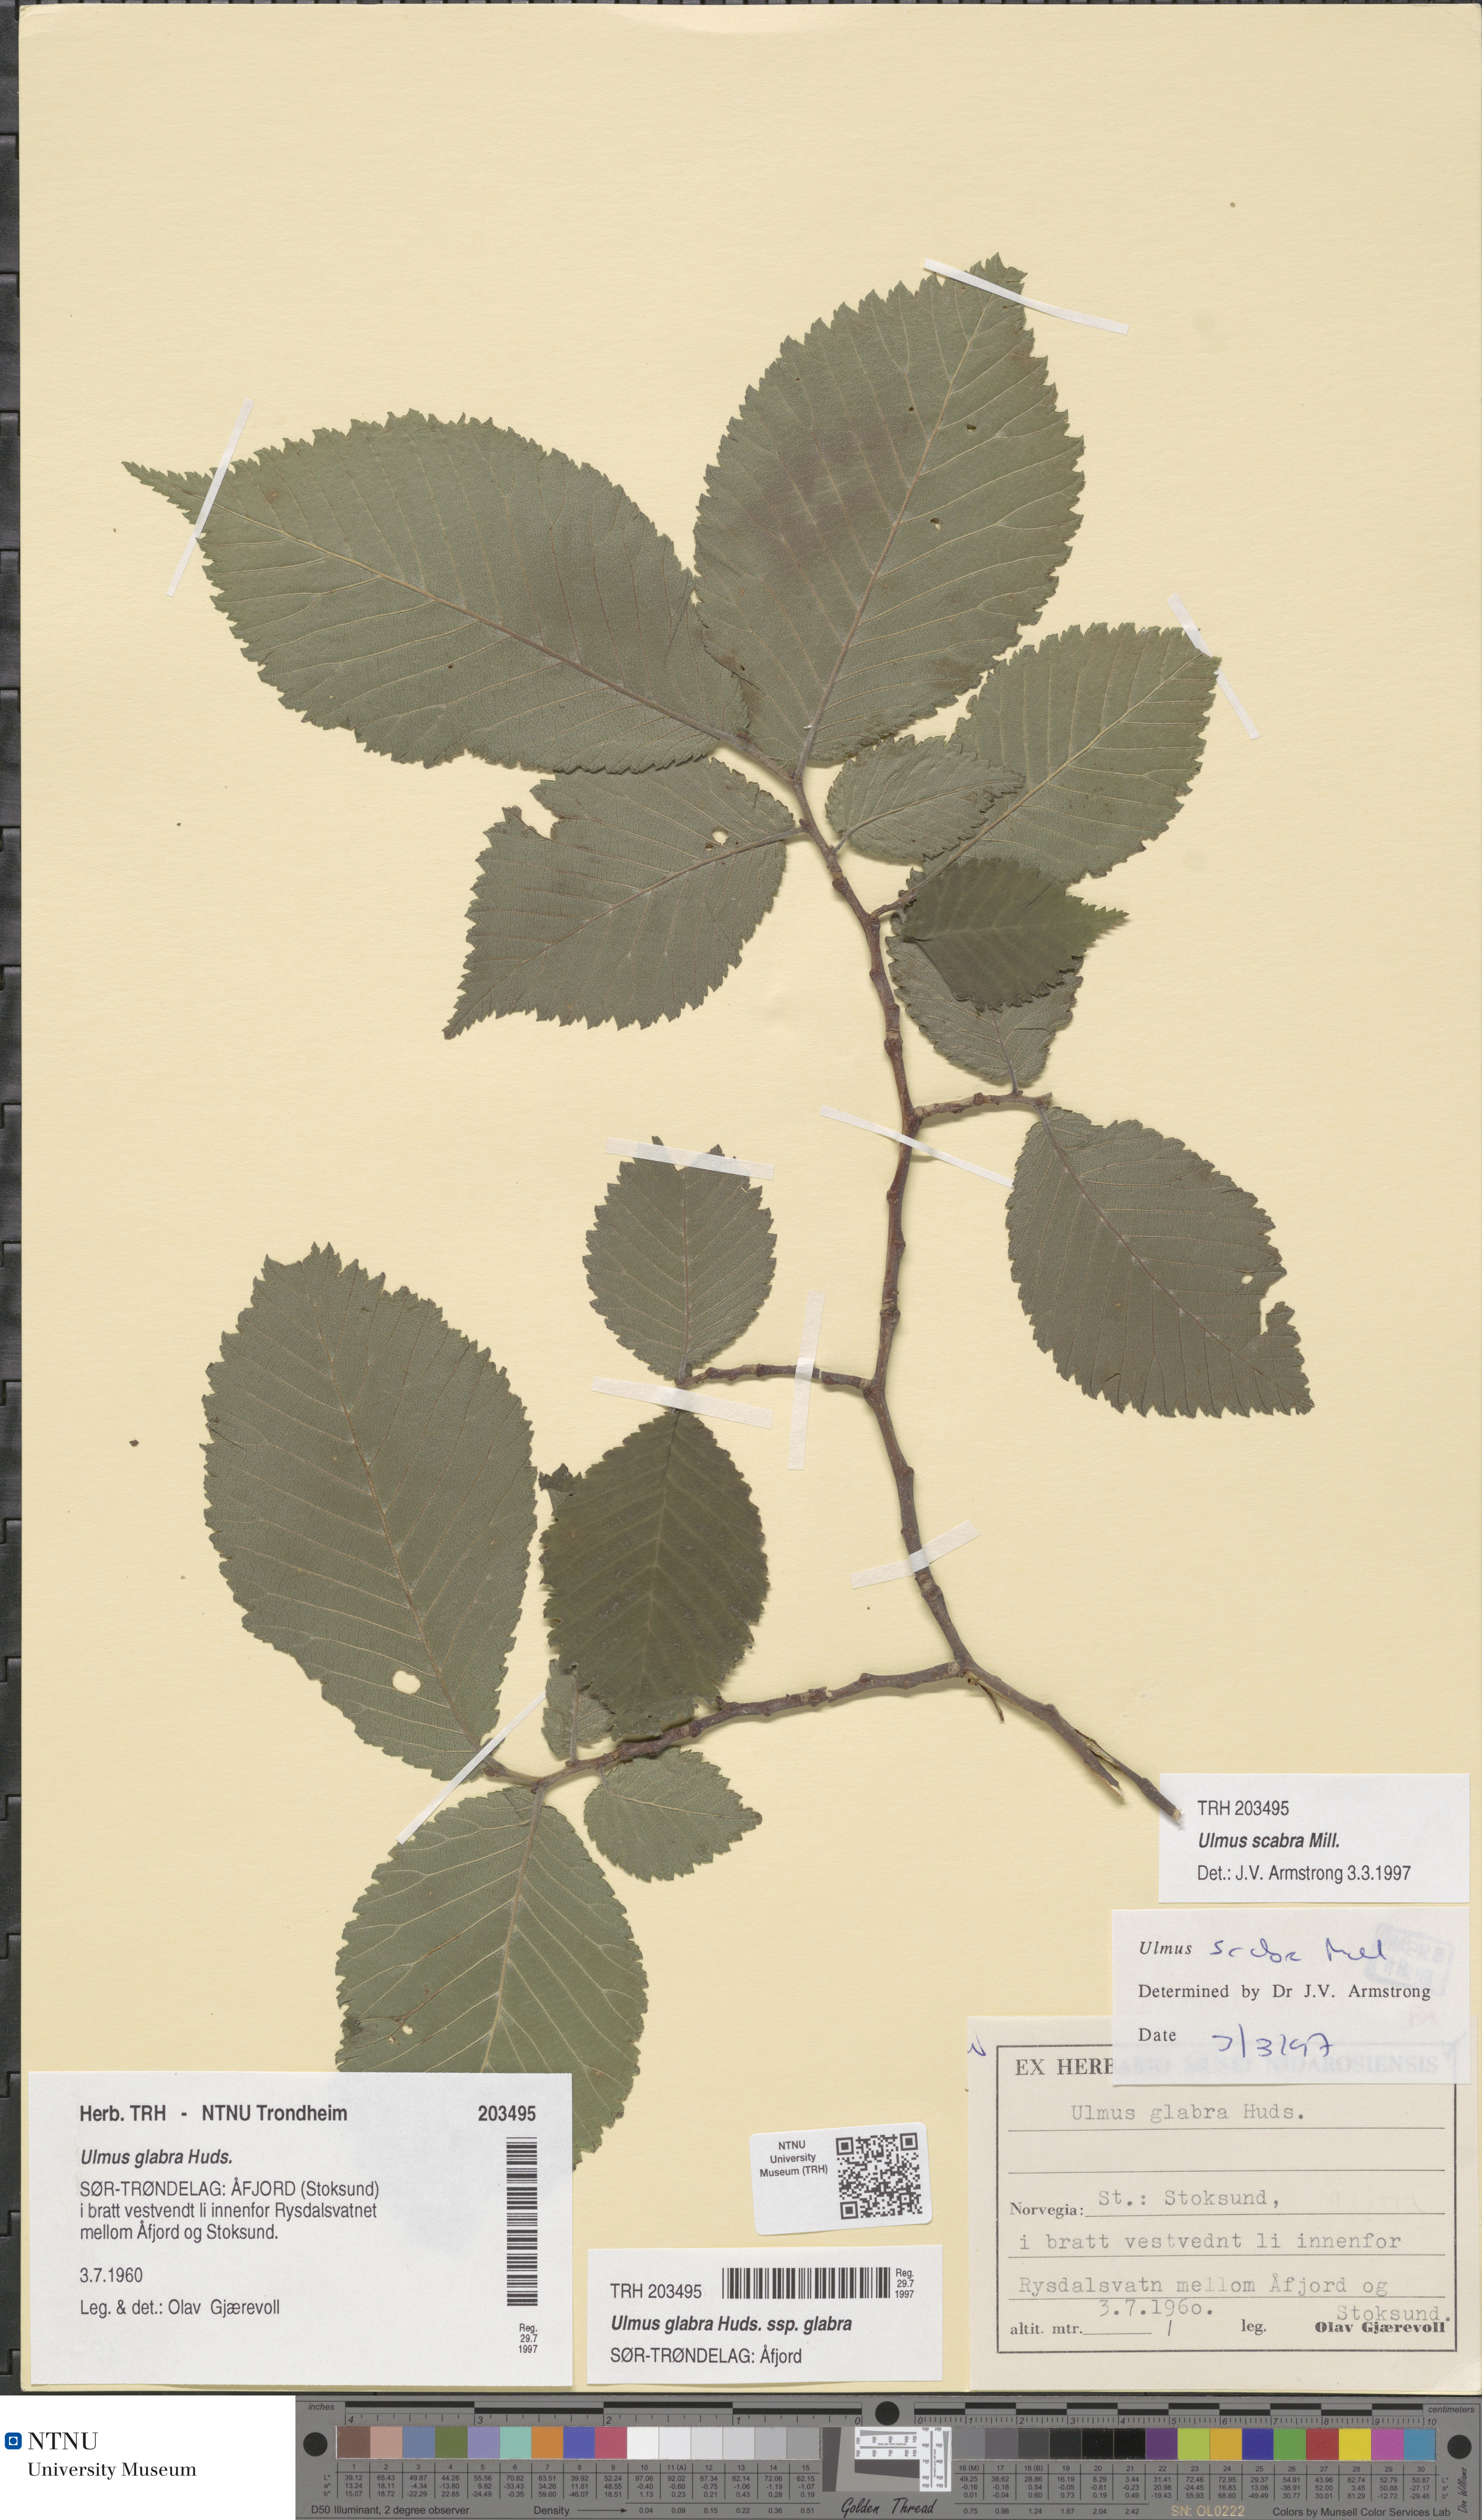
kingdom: Plantae
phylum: Tracheophyta
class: Magnoliopsida
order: Rosales
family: Ulmaceae
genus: Ulmus
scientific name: Ulmus glabra
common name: Wych elm
